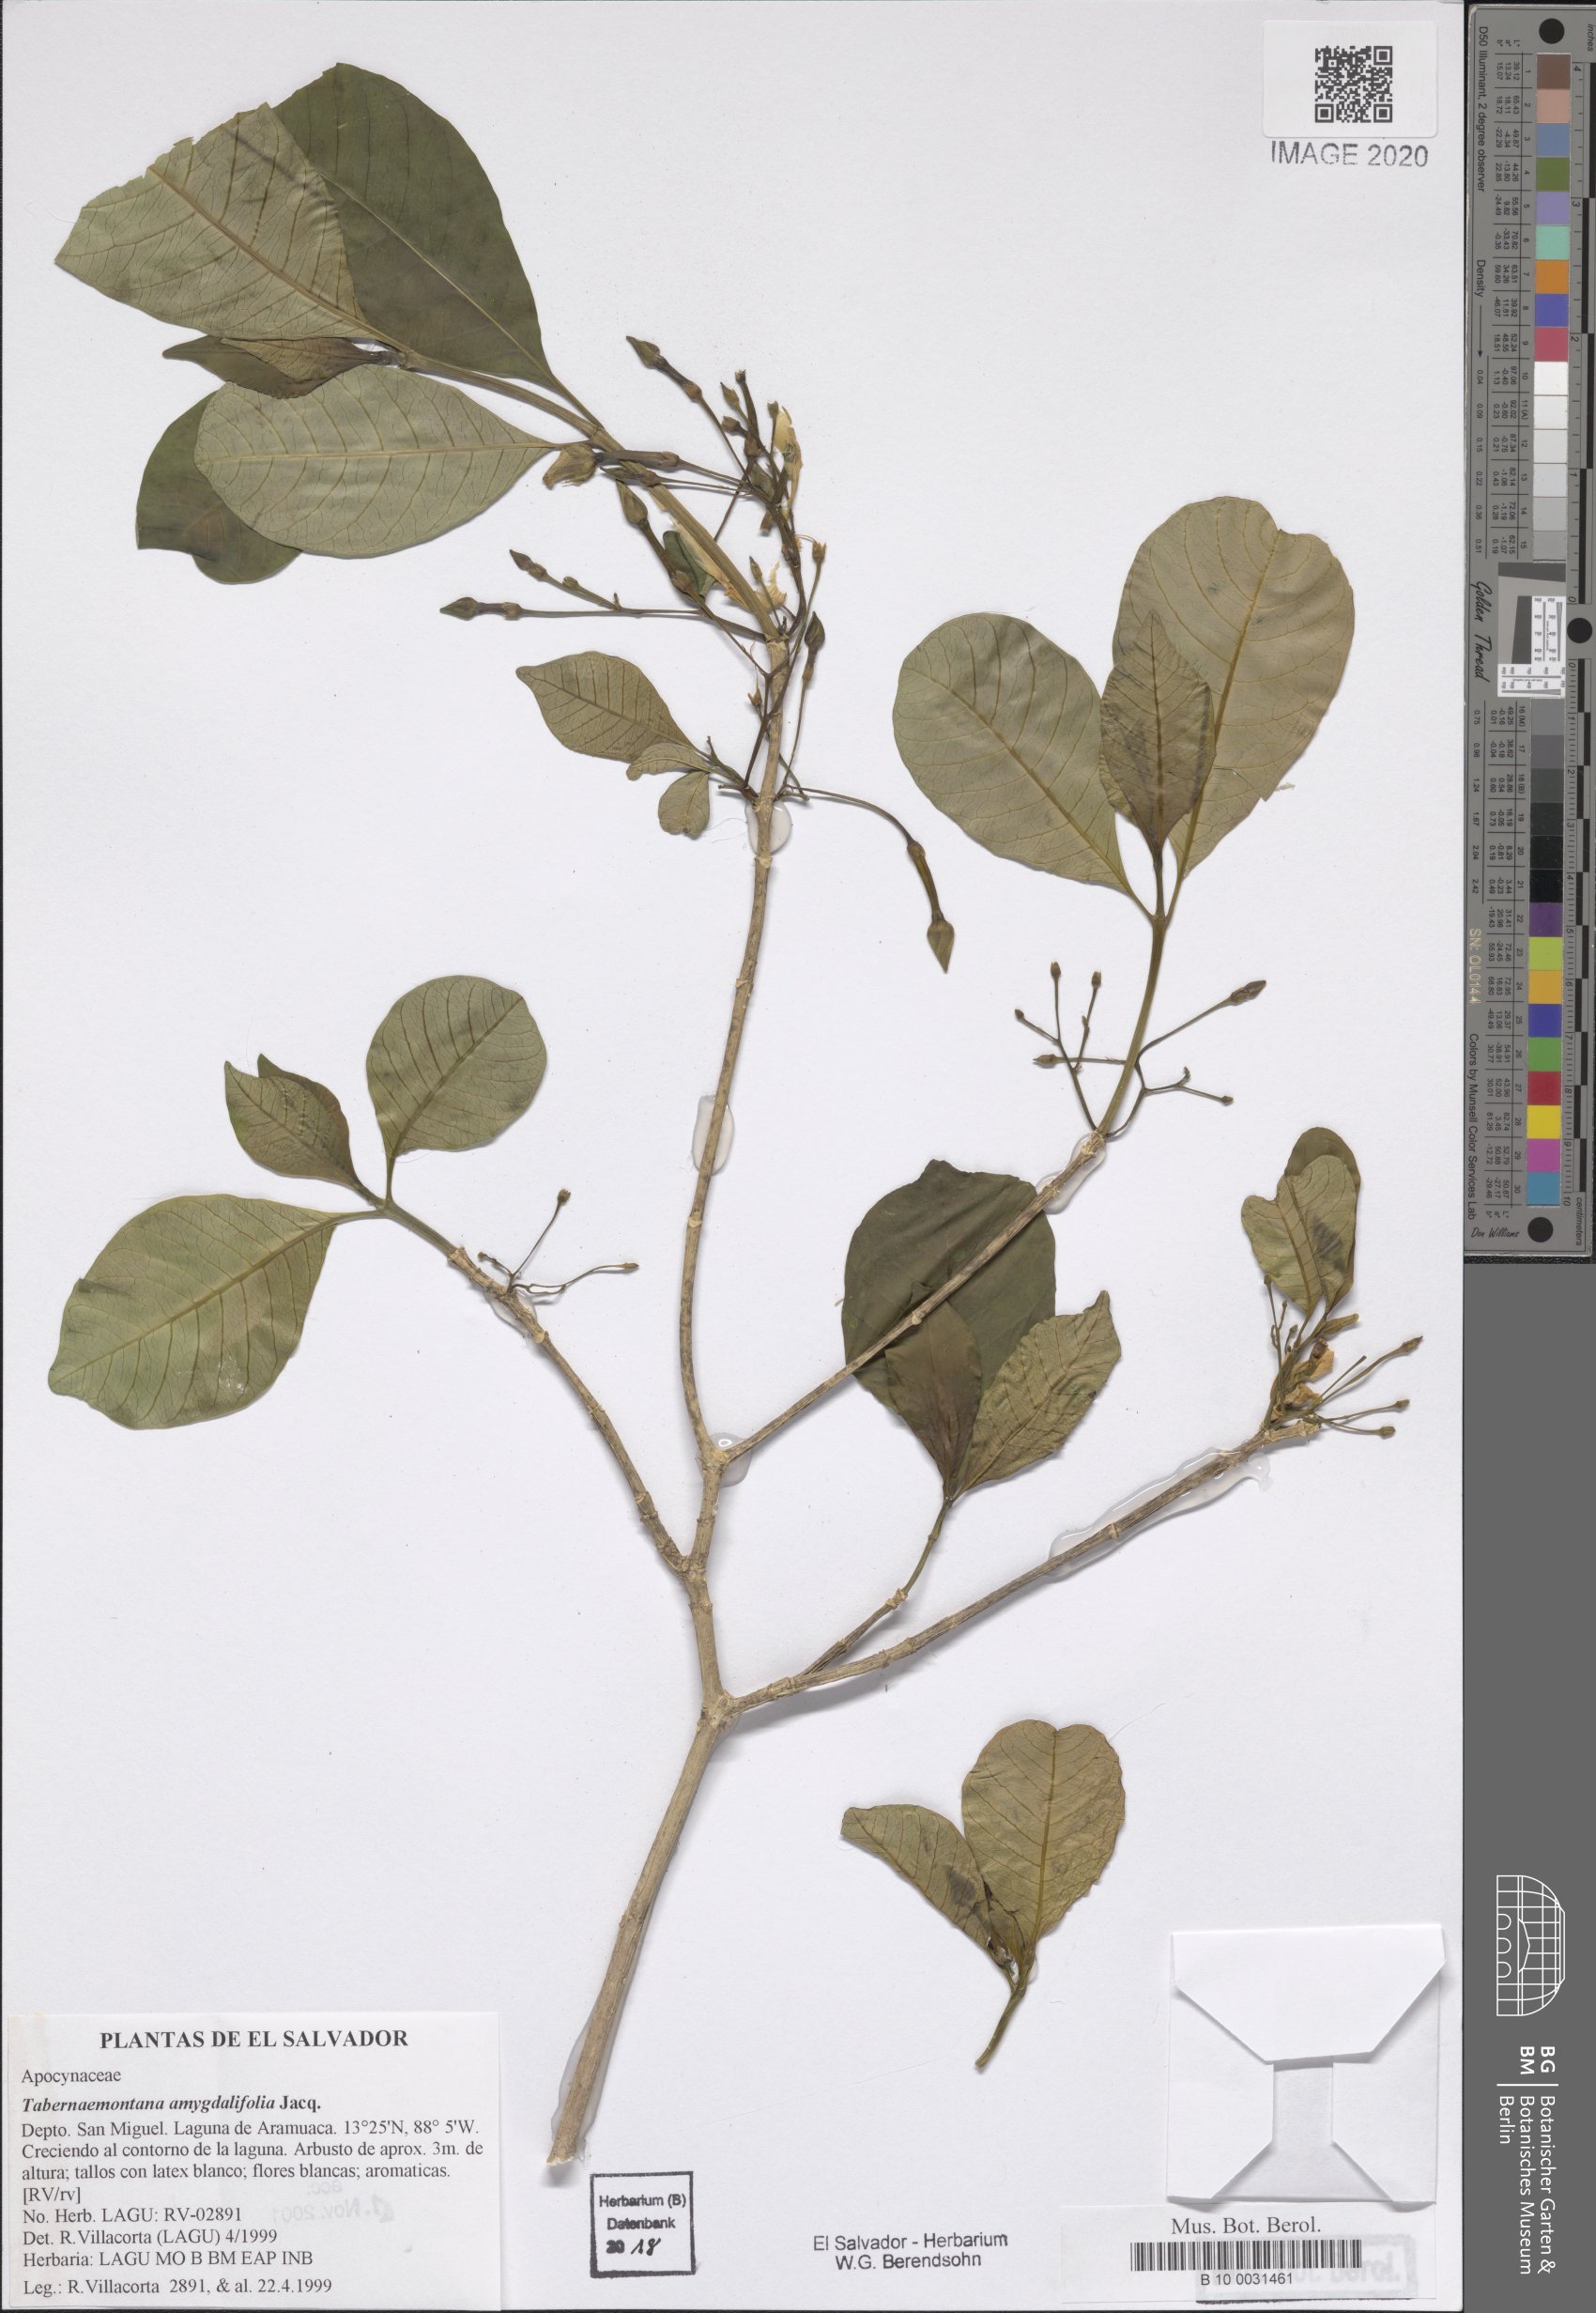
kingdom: Plantae
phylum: Tracheophyta
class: Magnoliopsida
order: Gentianales
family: Apocynaceae
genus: Tabernaemontana
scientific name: Tabernaemontana amygdalifolia
